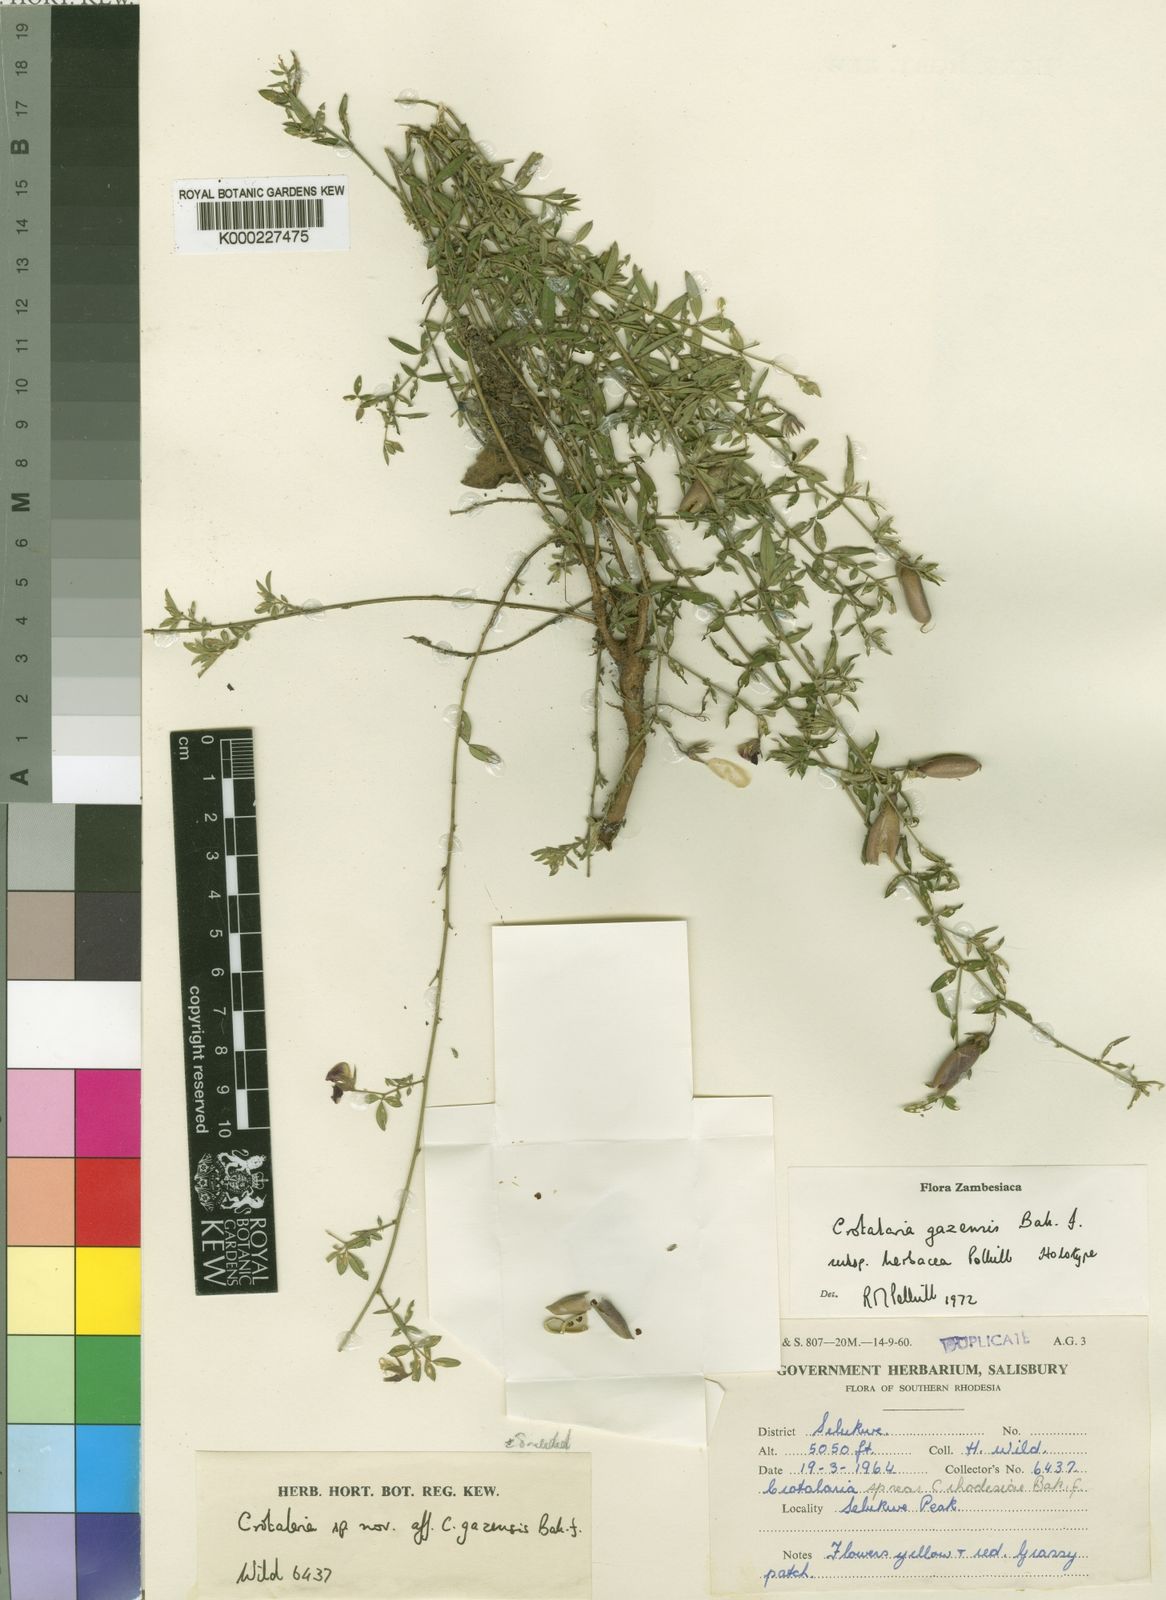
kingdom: Plantae
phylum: Tracheophyta
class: Magnoliopsida
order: Fabales
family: Fabaceae
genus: Crotalaria
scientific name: Crotalaria gazensis
